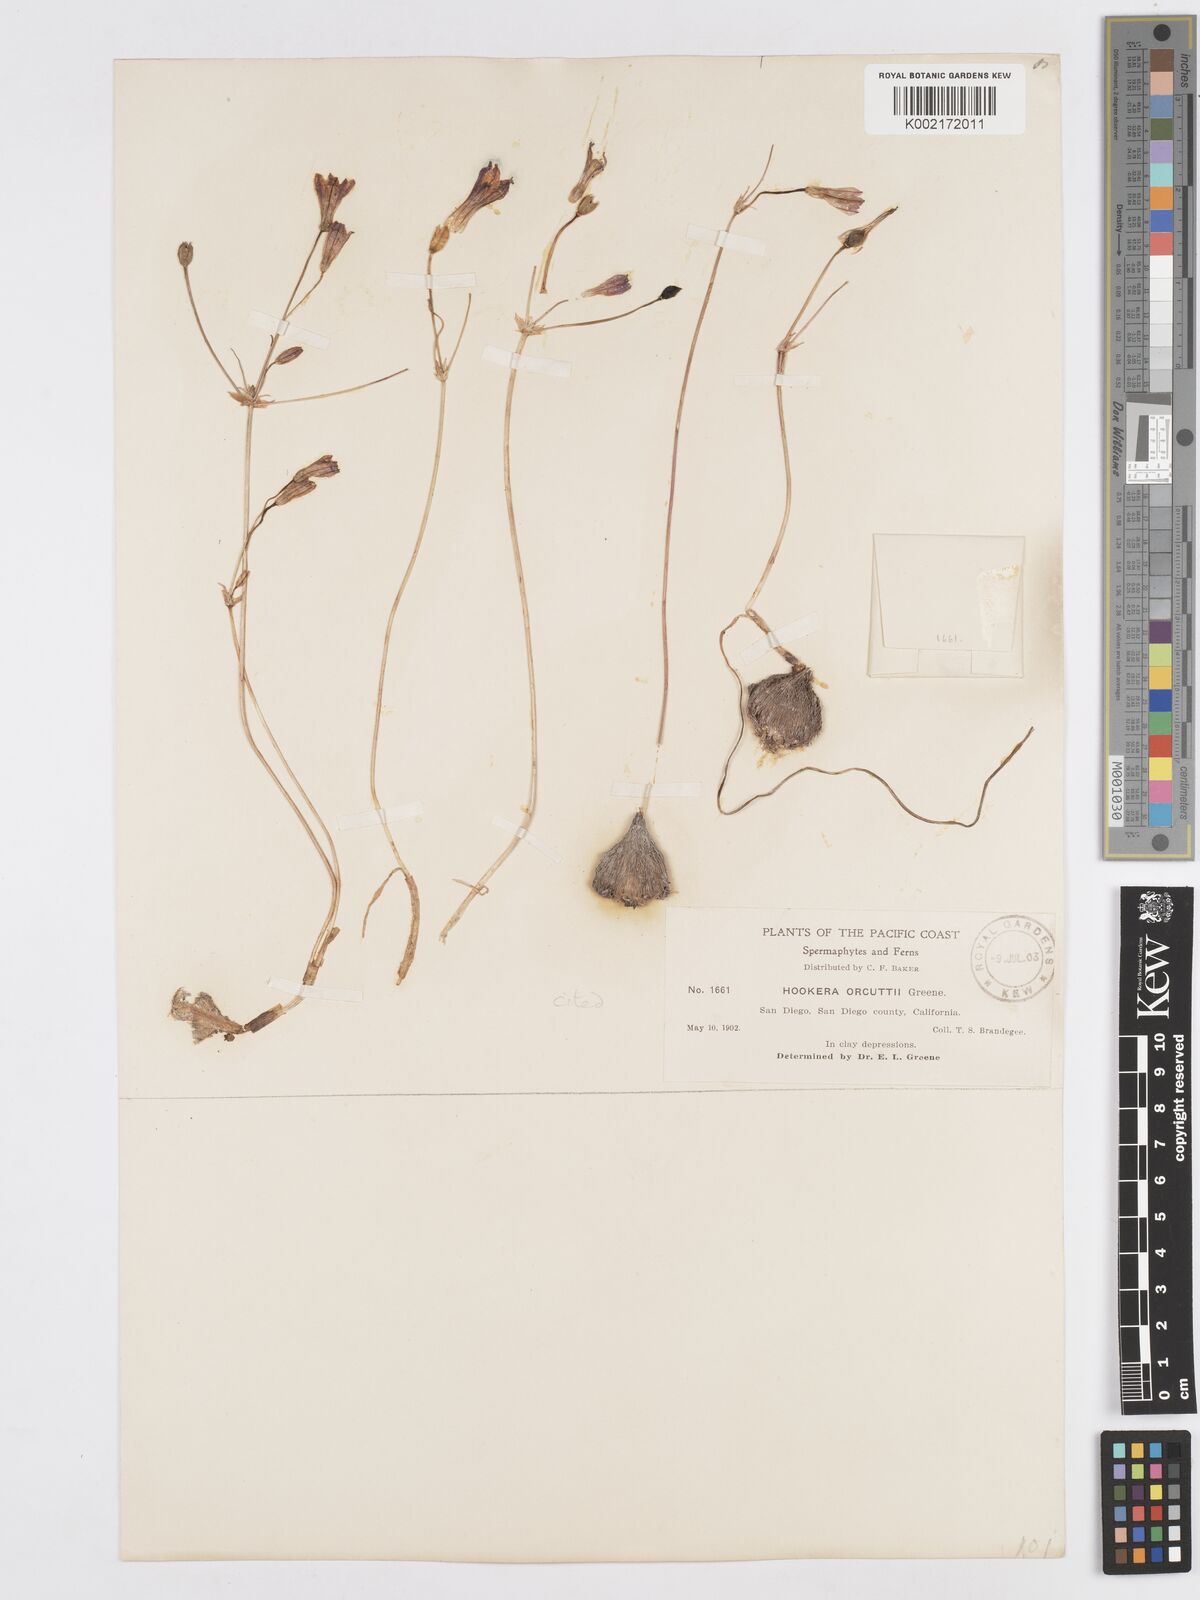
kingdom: Plantae
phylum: Tracheophyta
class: Liliopsida
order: Asparagales
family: Asparagaceae
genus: Brodiaea
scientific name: Brodiaea orcuttii
